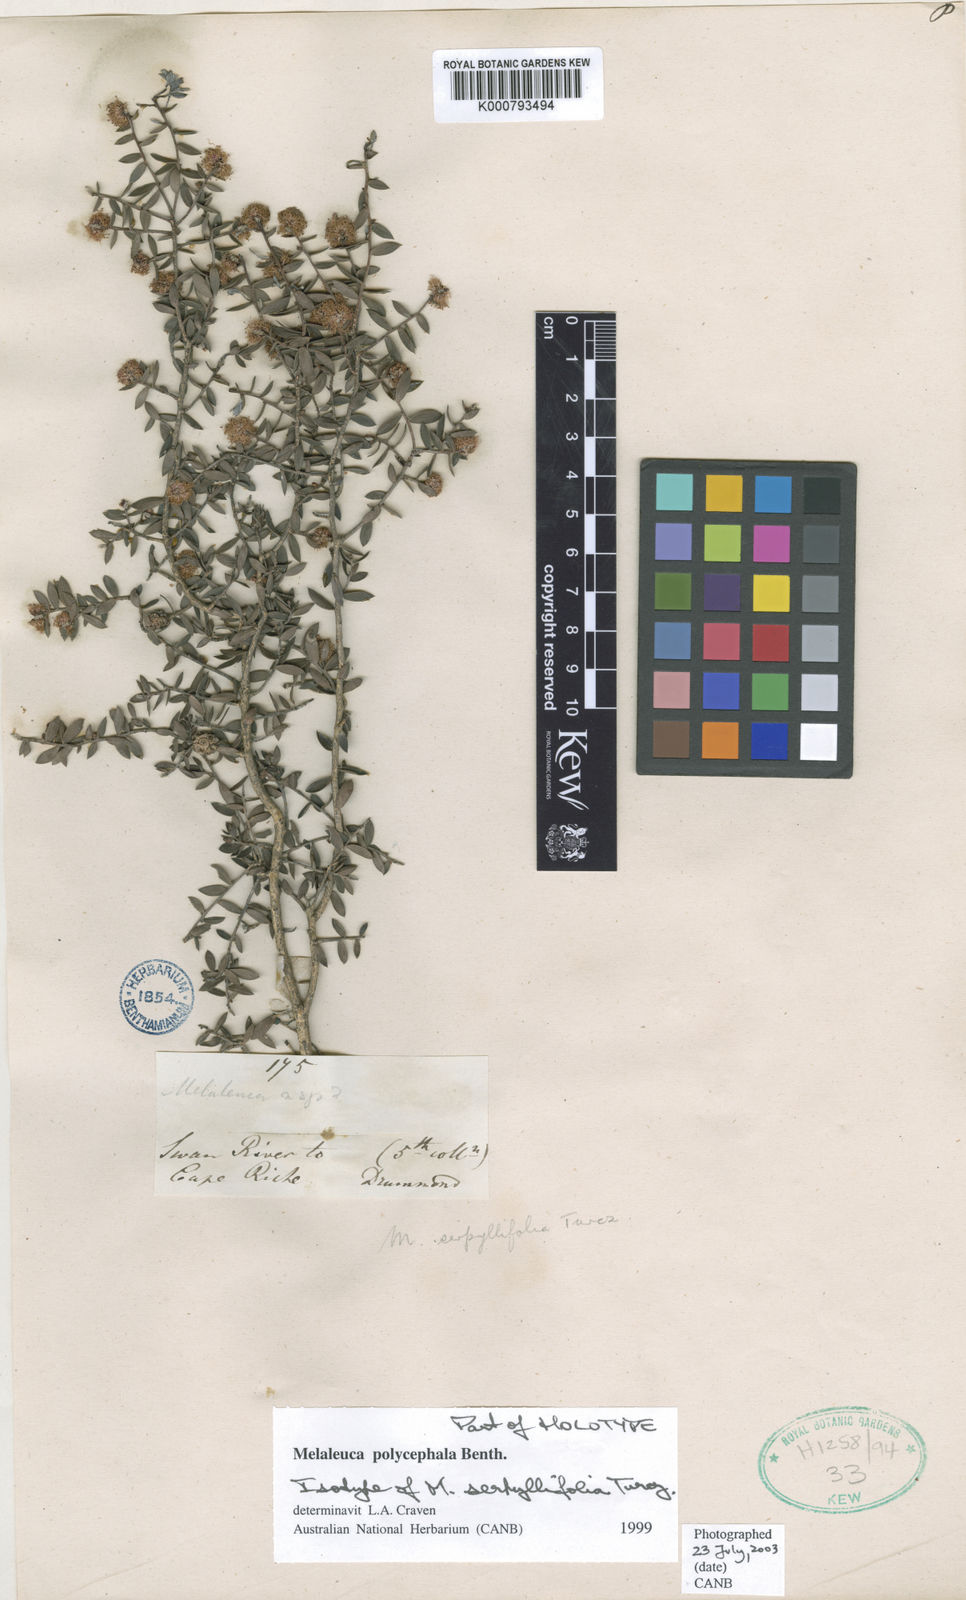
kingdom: Plantae
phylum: Tracheophyta
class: Magnoliopsida
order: Myrtales
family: Myrtaceae
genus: Melaleuca
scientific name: Melaleuca polycephala
